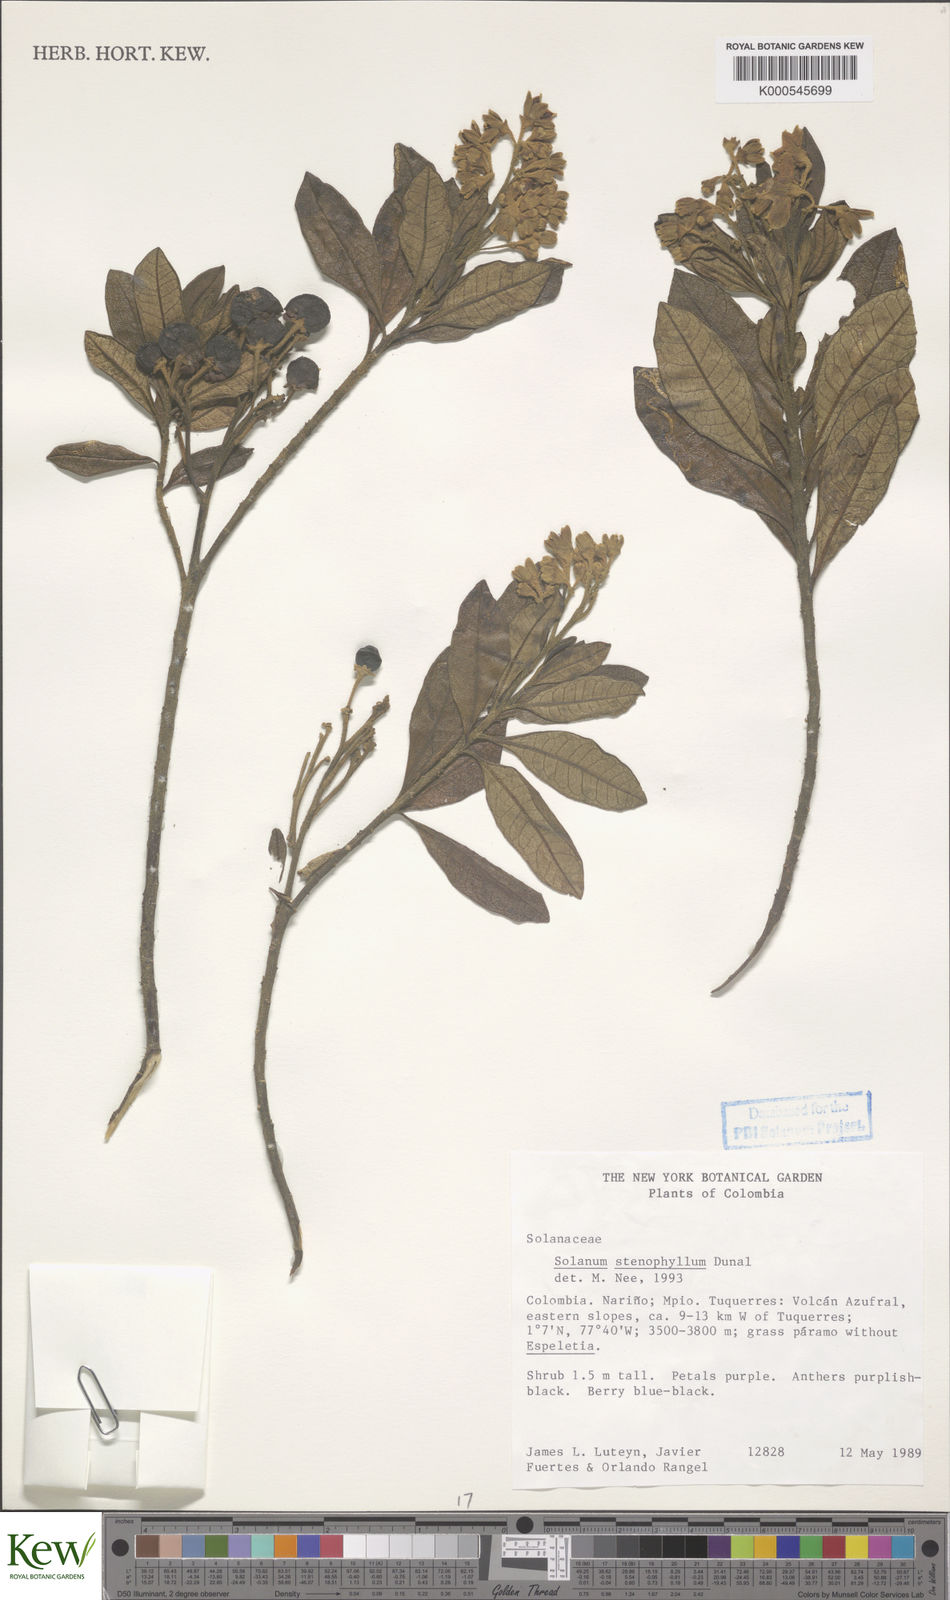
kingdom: Plantae
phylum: Tracheophyta
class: Magnoliopsida
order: Solanales
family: Solanaceae
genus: Solanum
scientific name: Solanum stenophyllum
